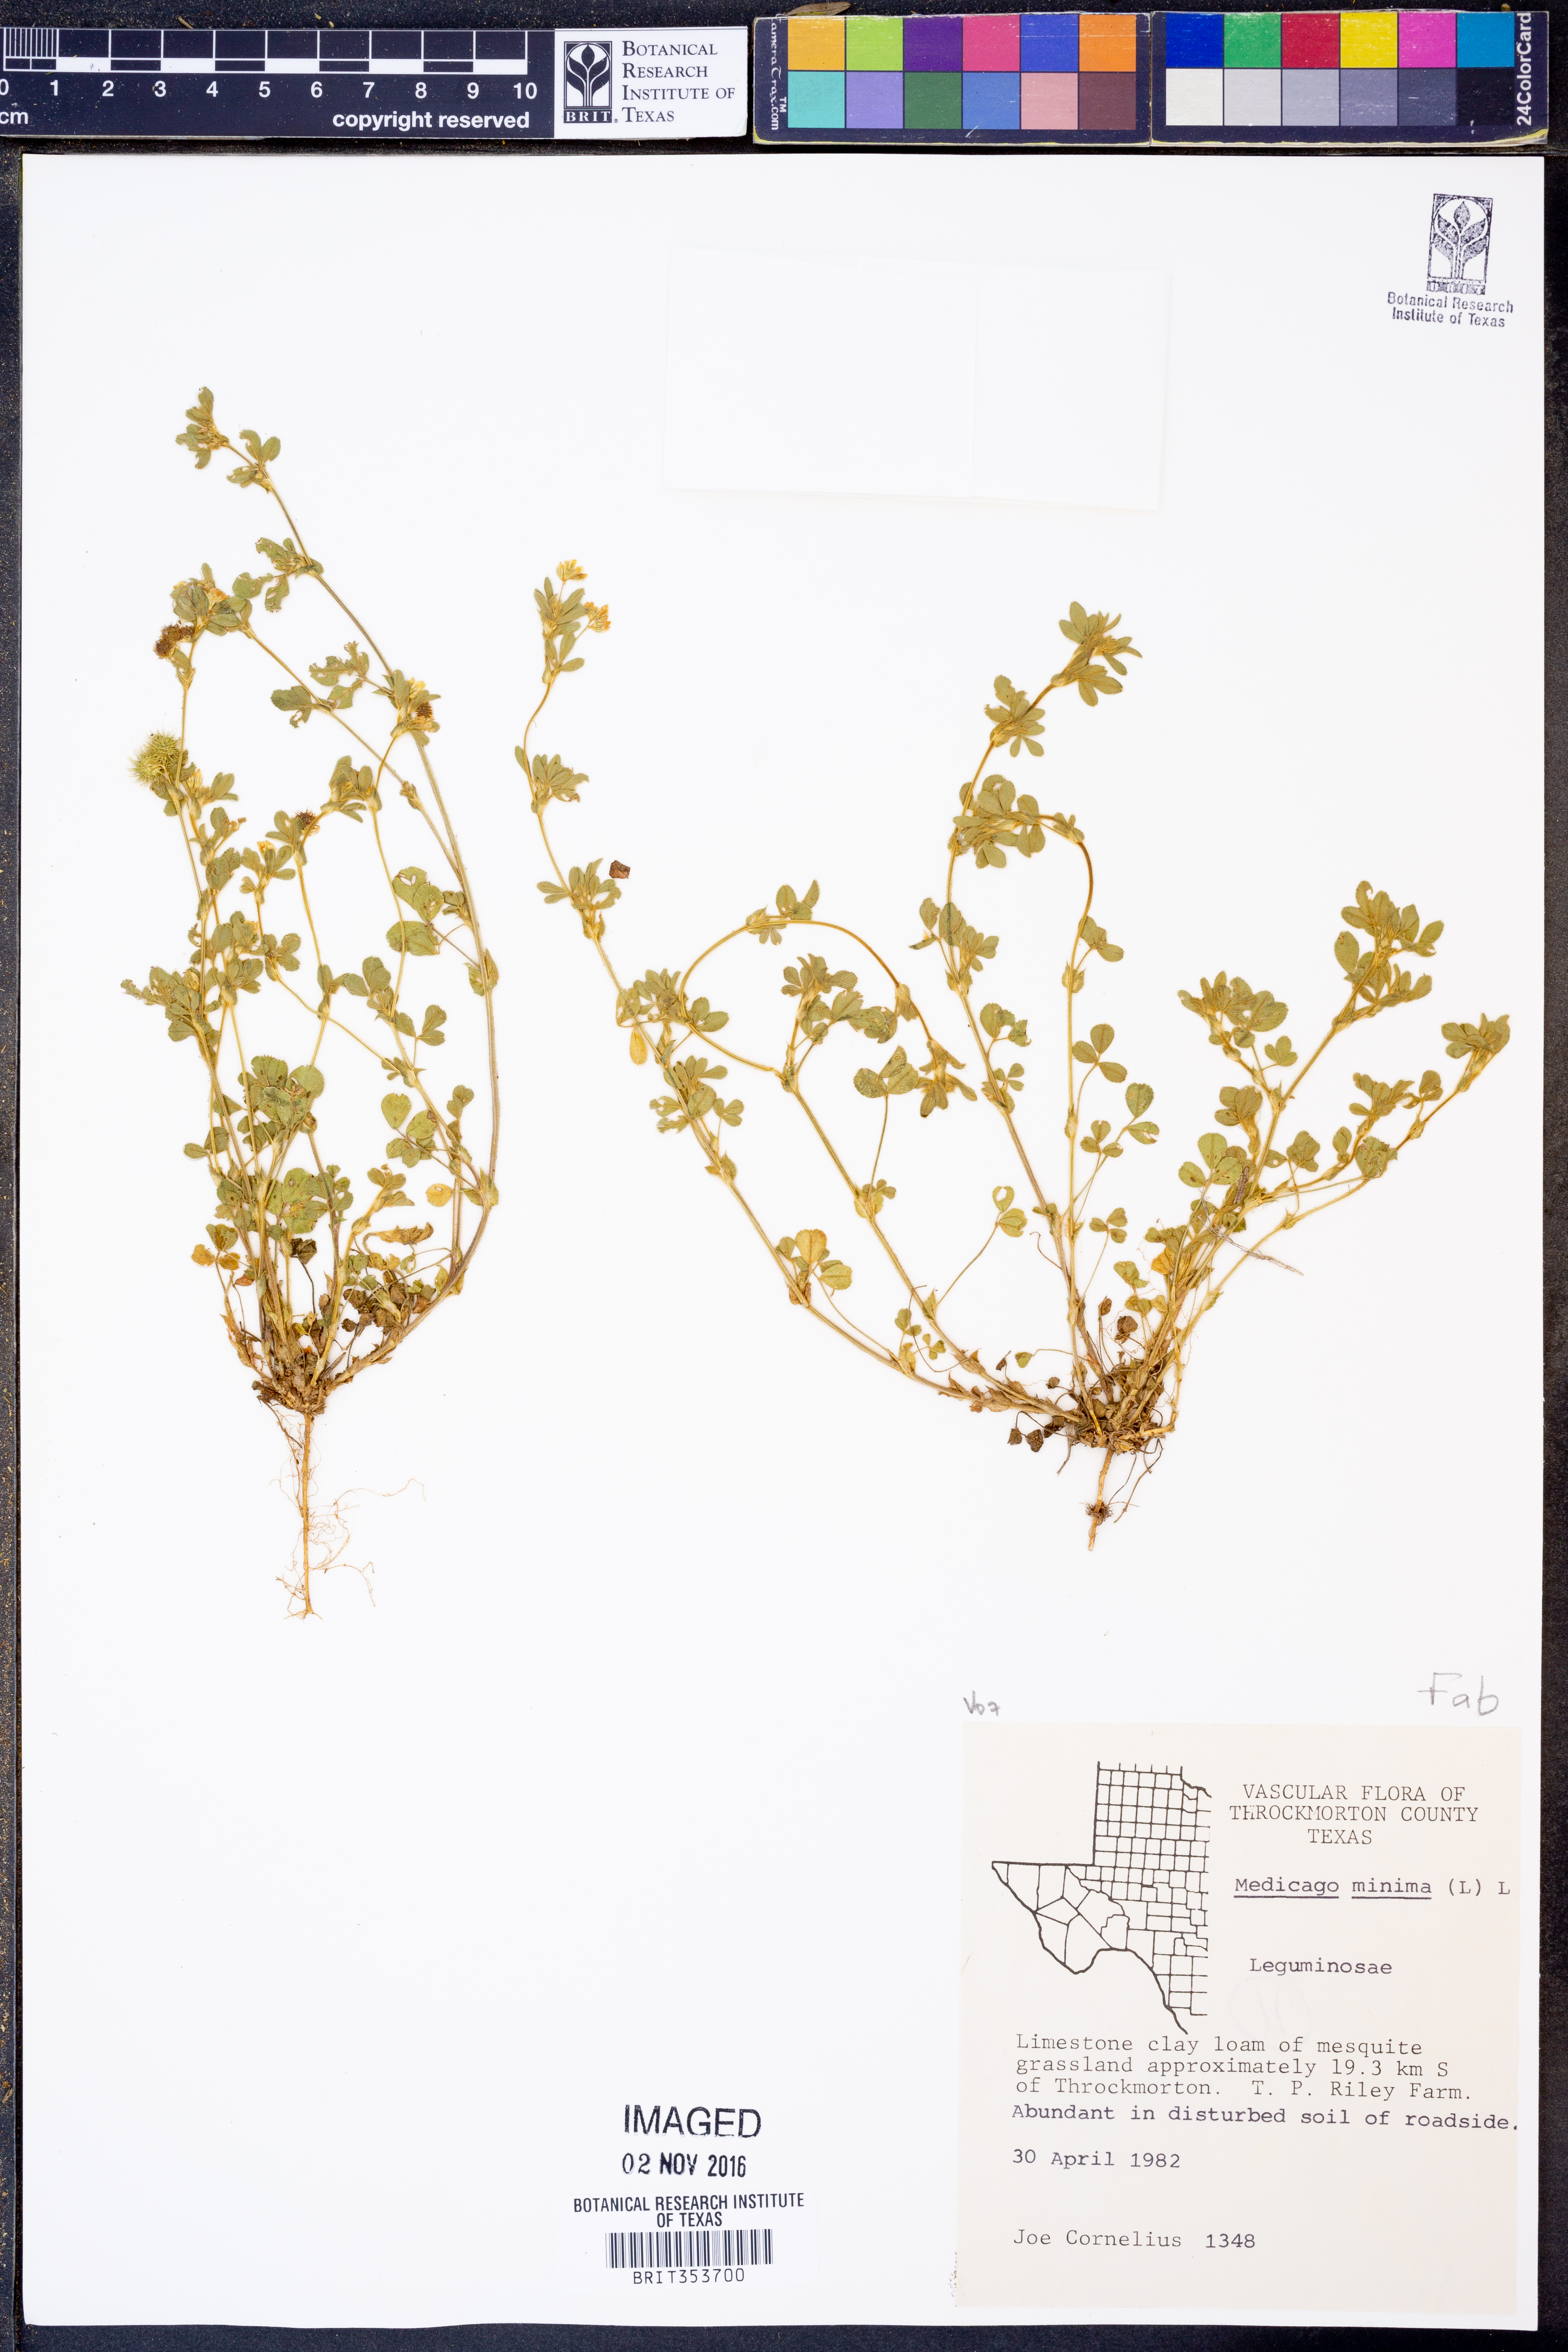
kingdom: Plantae
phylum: Tracheophyta
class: Magnoliopsida
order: Fabales
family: Fabaceae
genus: Medicago
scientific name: Medicago minima
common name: Little bur-clover
